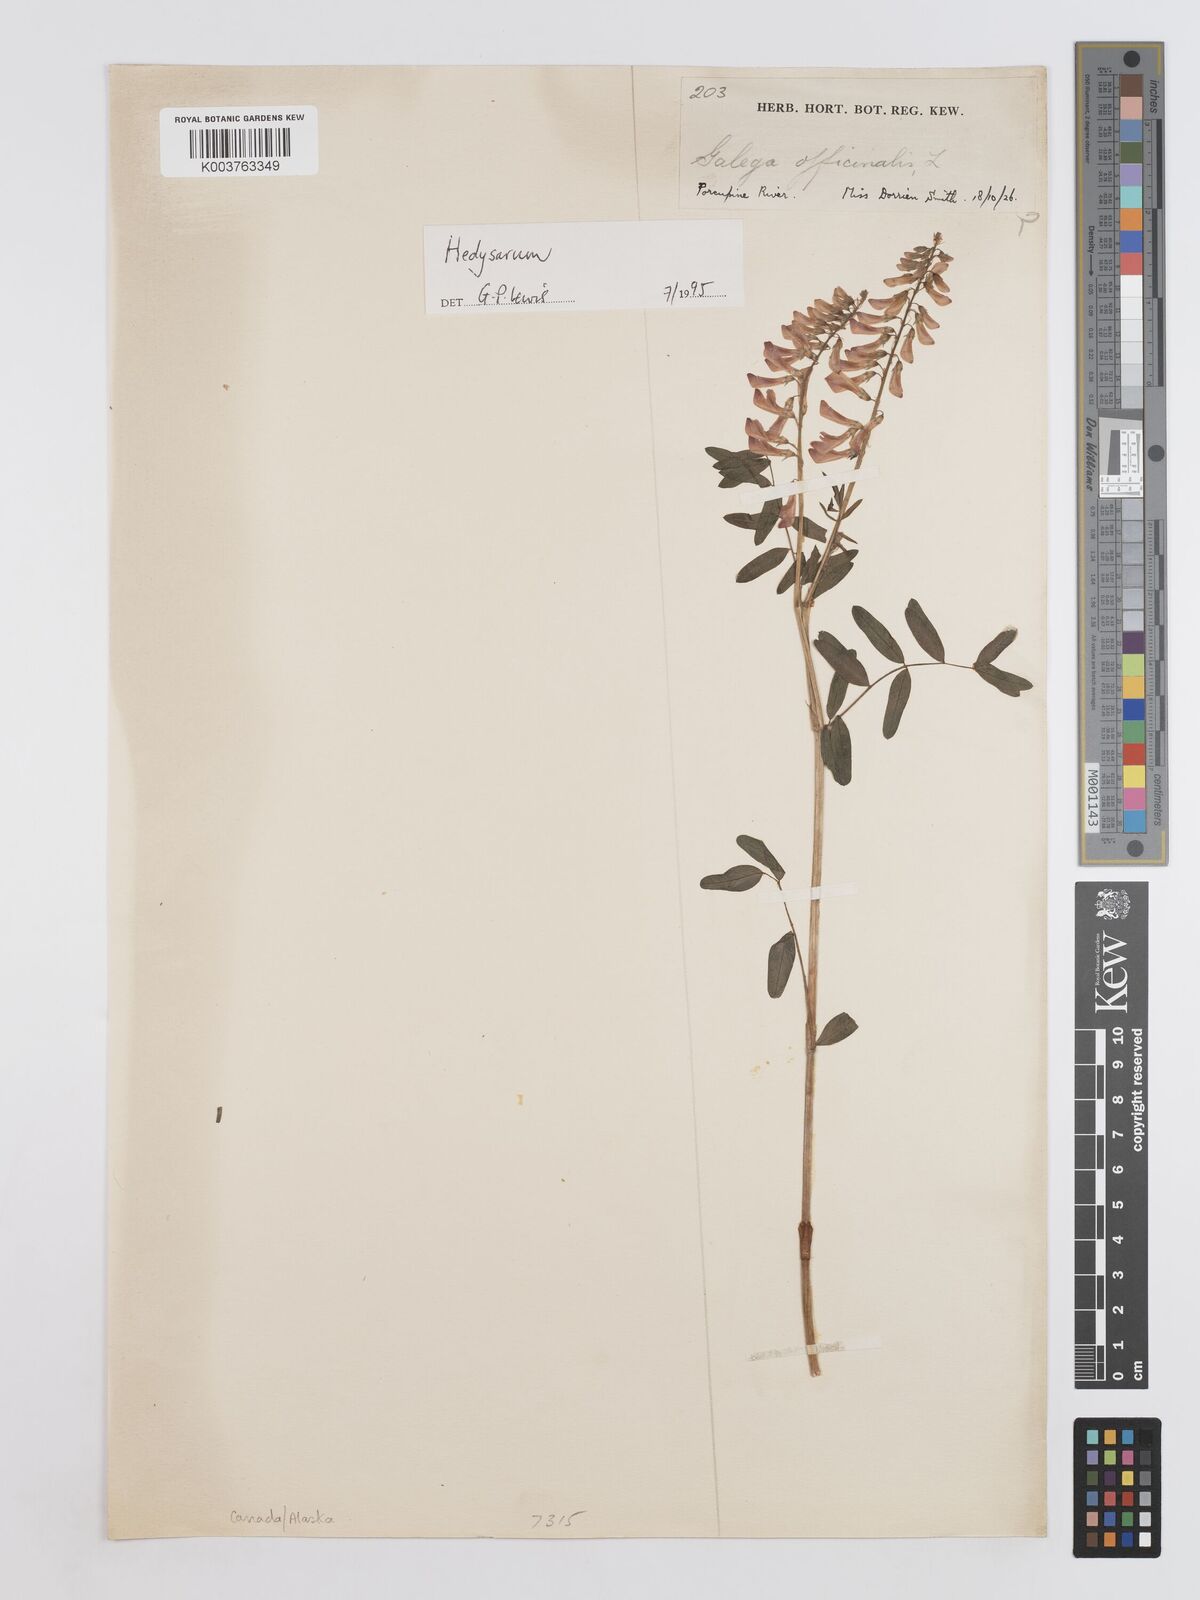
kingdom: Plantae
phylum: Tracheophyta
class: Magnoliopsida
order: Fabales
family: Fabaceae
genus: Hedysarum
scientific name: Hedysarum
